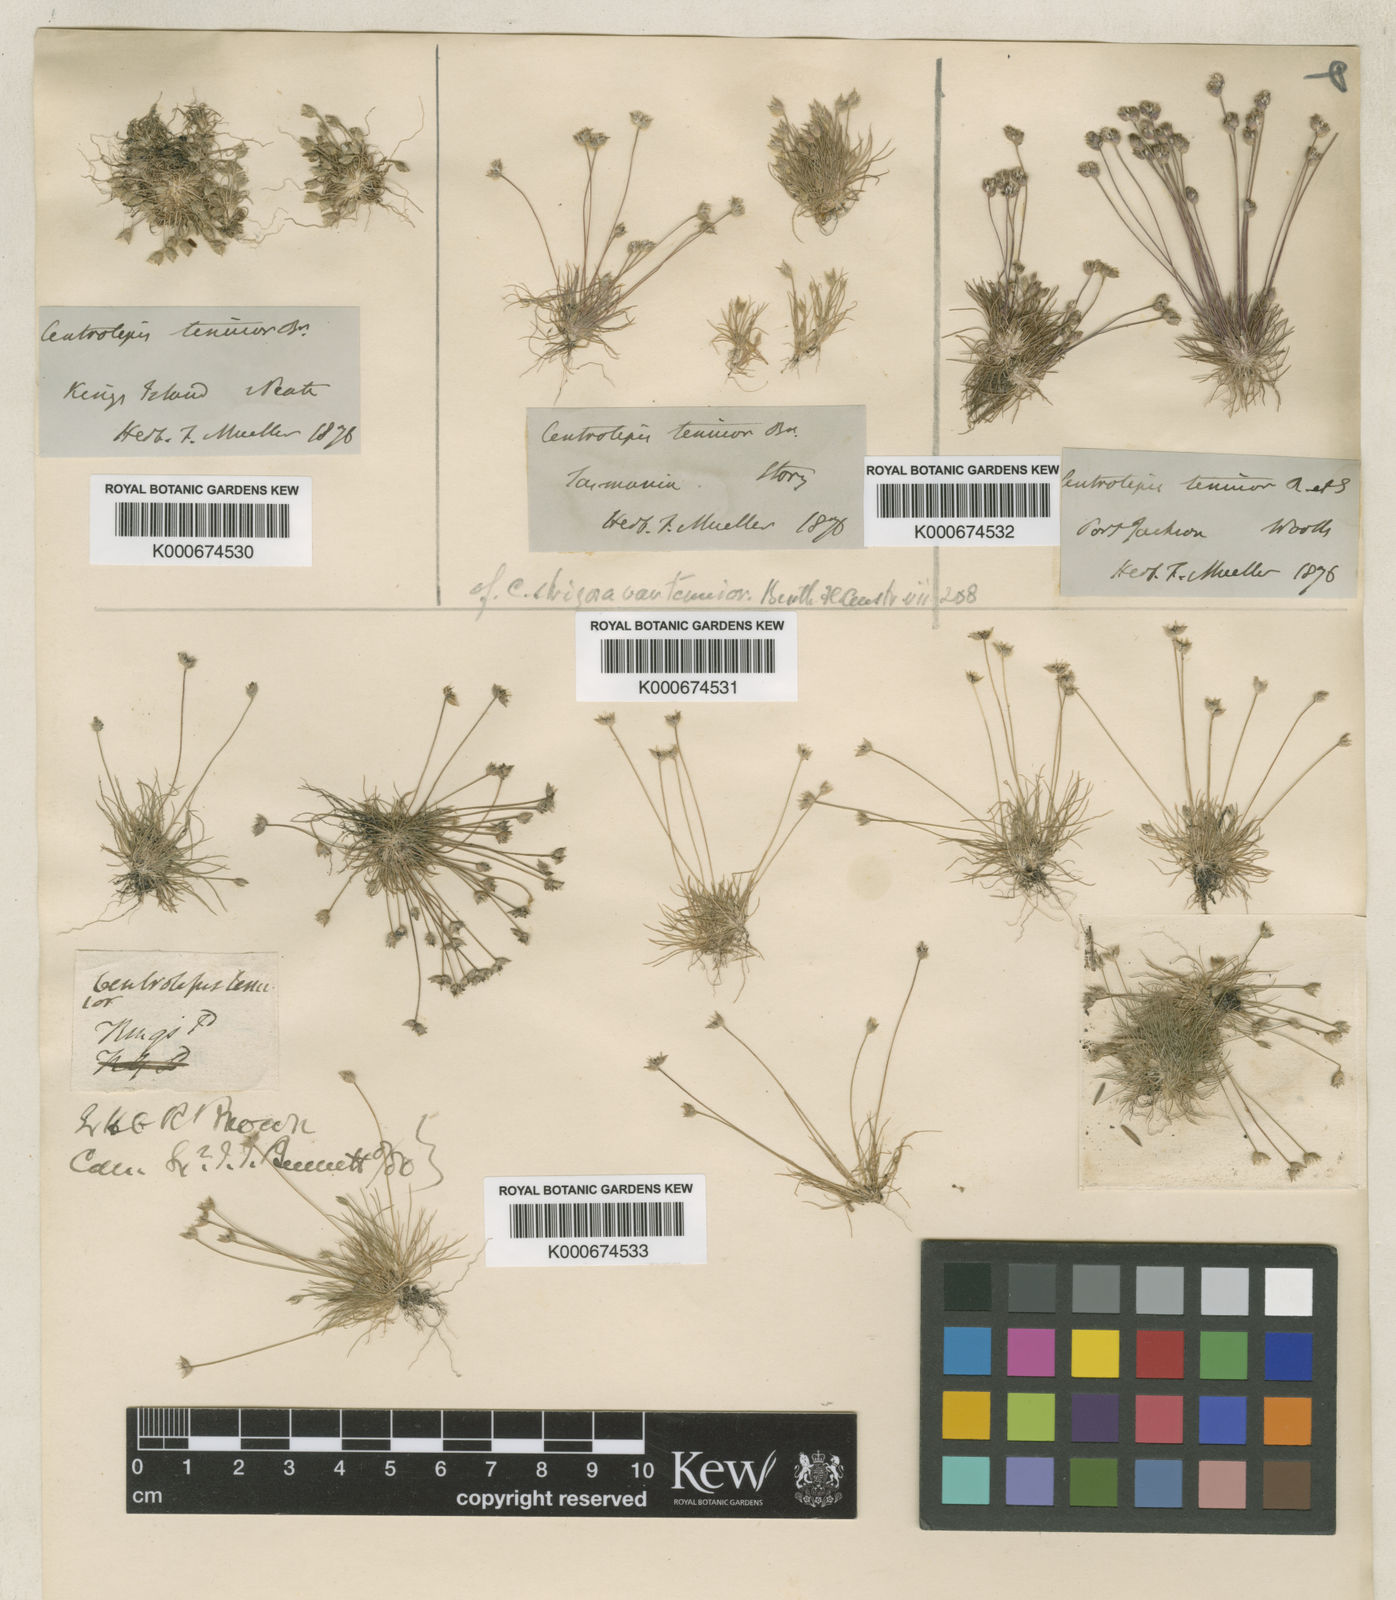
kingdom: Plantae
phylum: Tracheophyta
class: Liliopsida
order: Poales
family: Restionaceae
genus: Centrolepis
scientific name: Centrolepis strigosa
